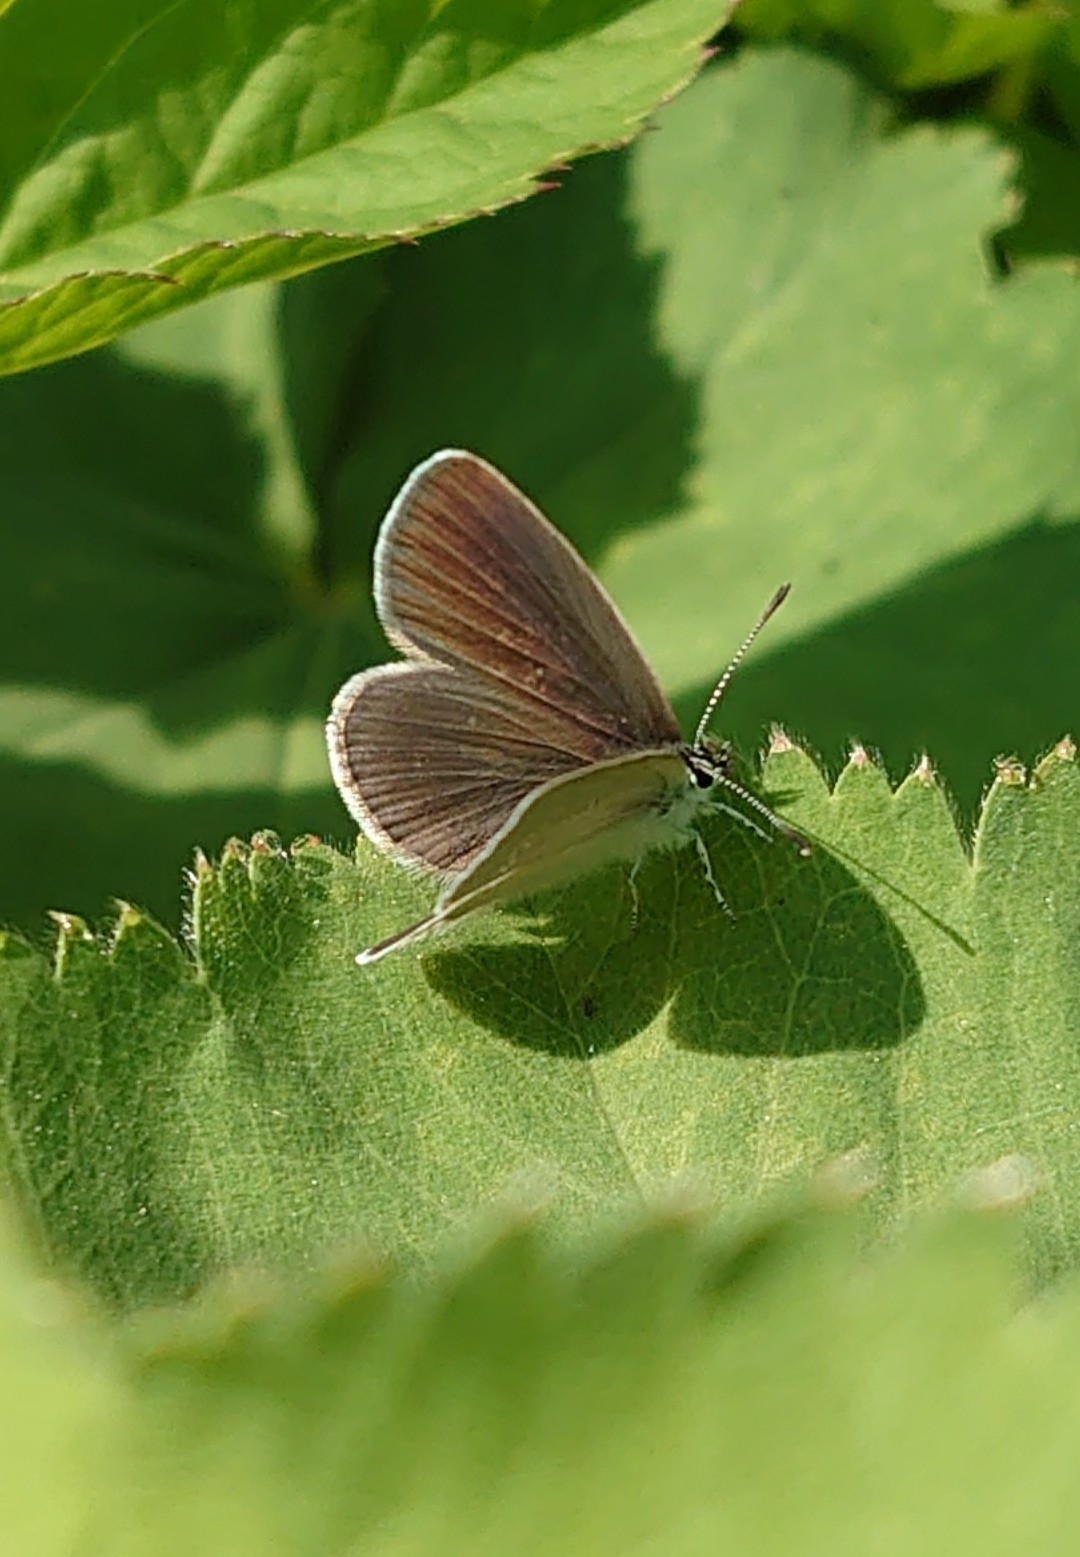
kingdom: Animalia
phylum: Arthropoda
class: Insecta
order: Lepidoptera
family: Lycaenidae
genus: Cupido
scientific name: Cupido minimus
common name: Dværgblåfugl
